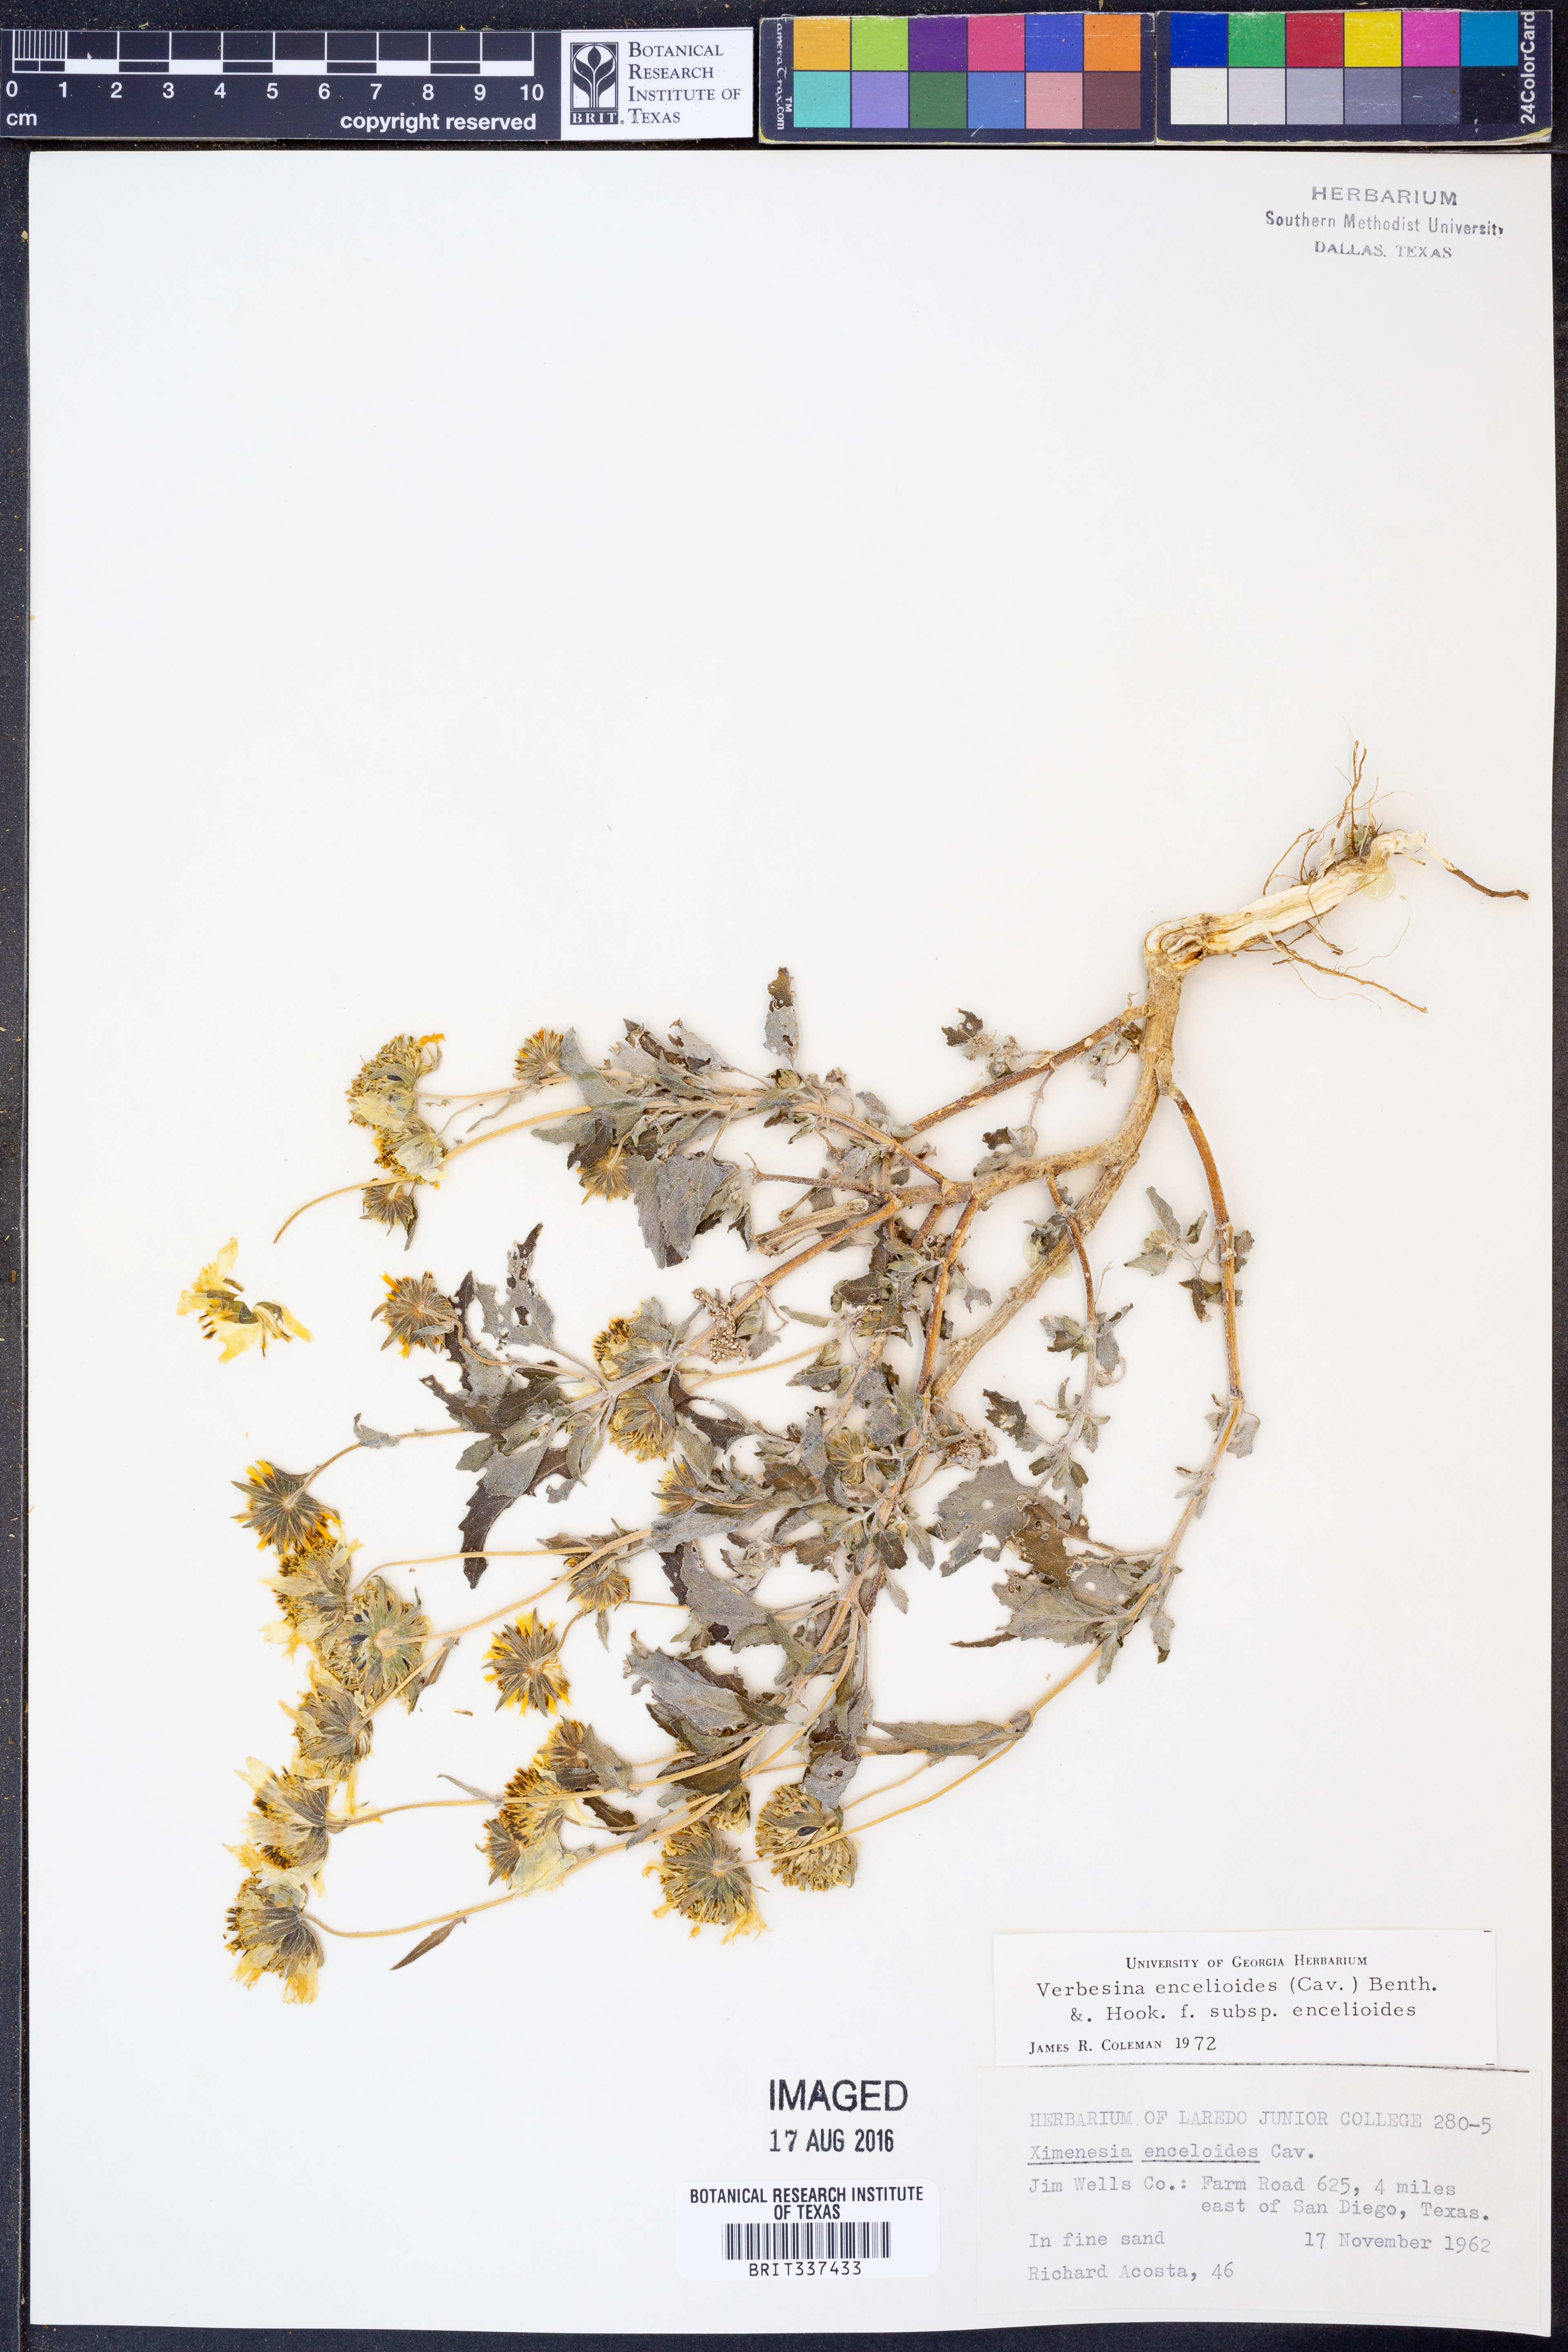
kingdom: Plantae
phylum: Tracheophyta
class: Magnoliopsida
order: Asterales
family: Asteraceae
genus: Verbesina
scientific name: Verbesina encelioides
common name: Golden crownbeard
